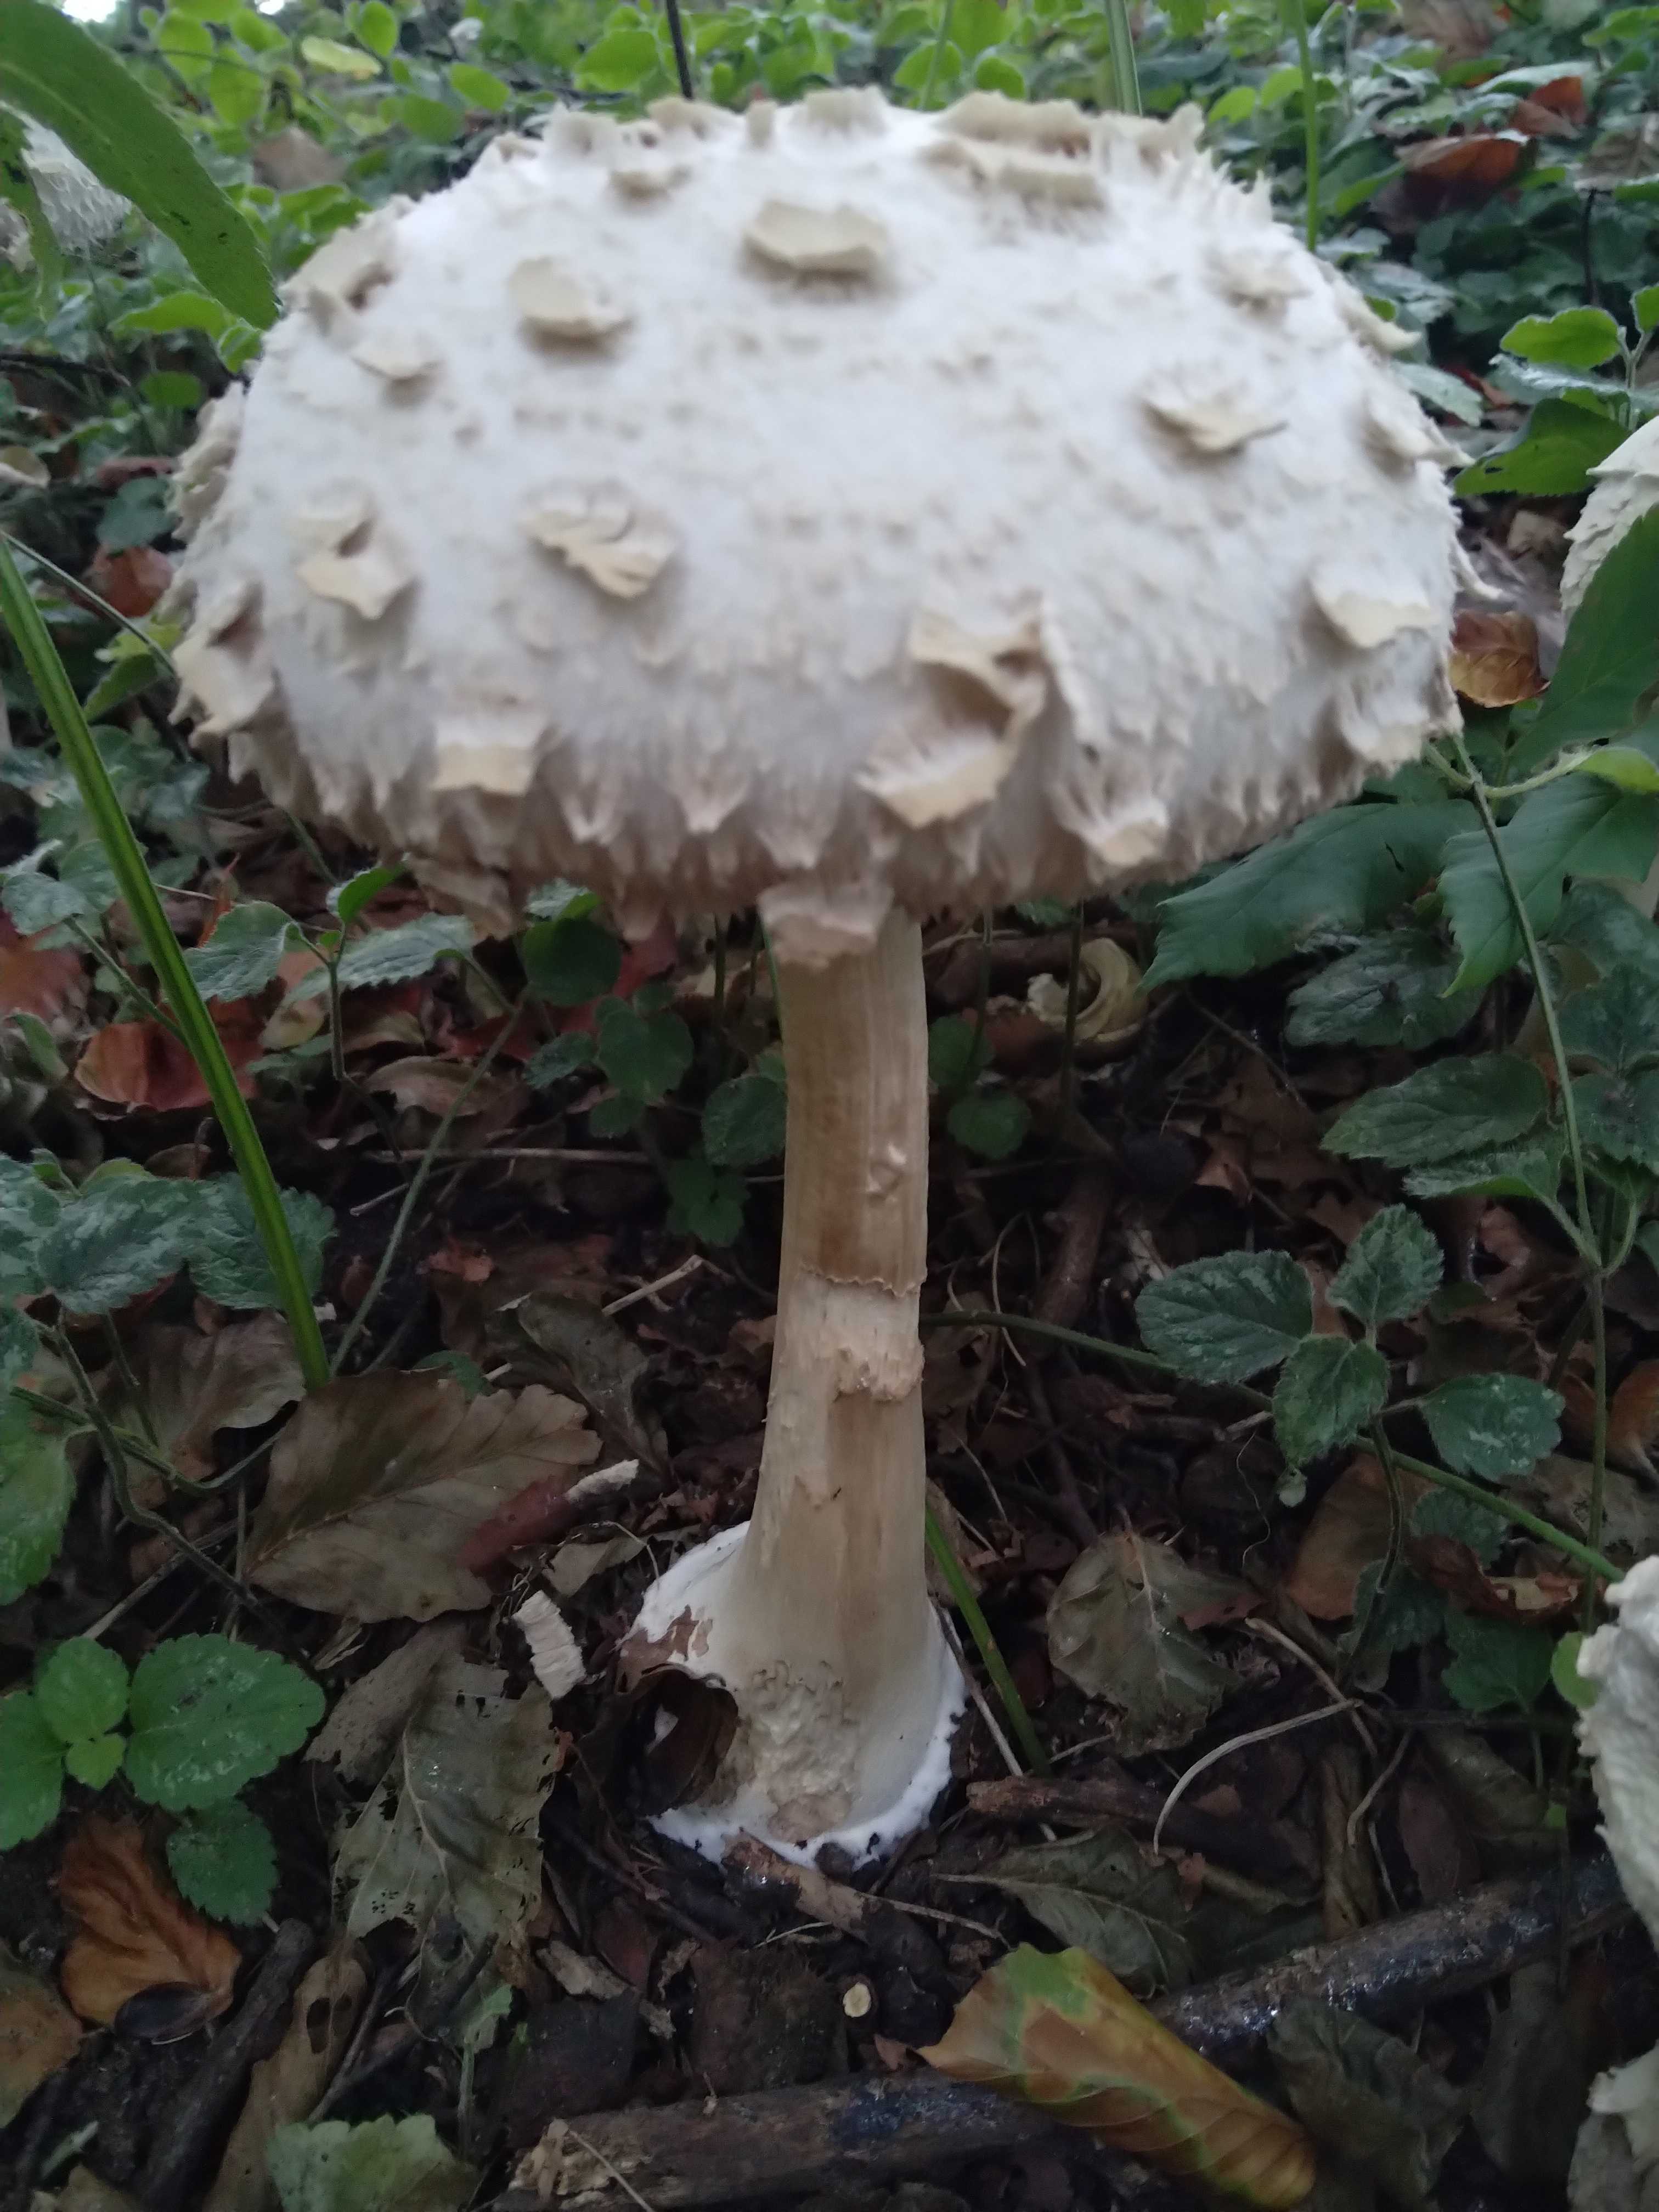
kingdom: Fungi
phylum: Basidiomycota
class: Agaricomycetes
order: Agaricales
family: Agaricaceae
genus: Chlorophyllum
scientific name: Chlorophyllum rhacodes
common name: ægte rabarberhat
